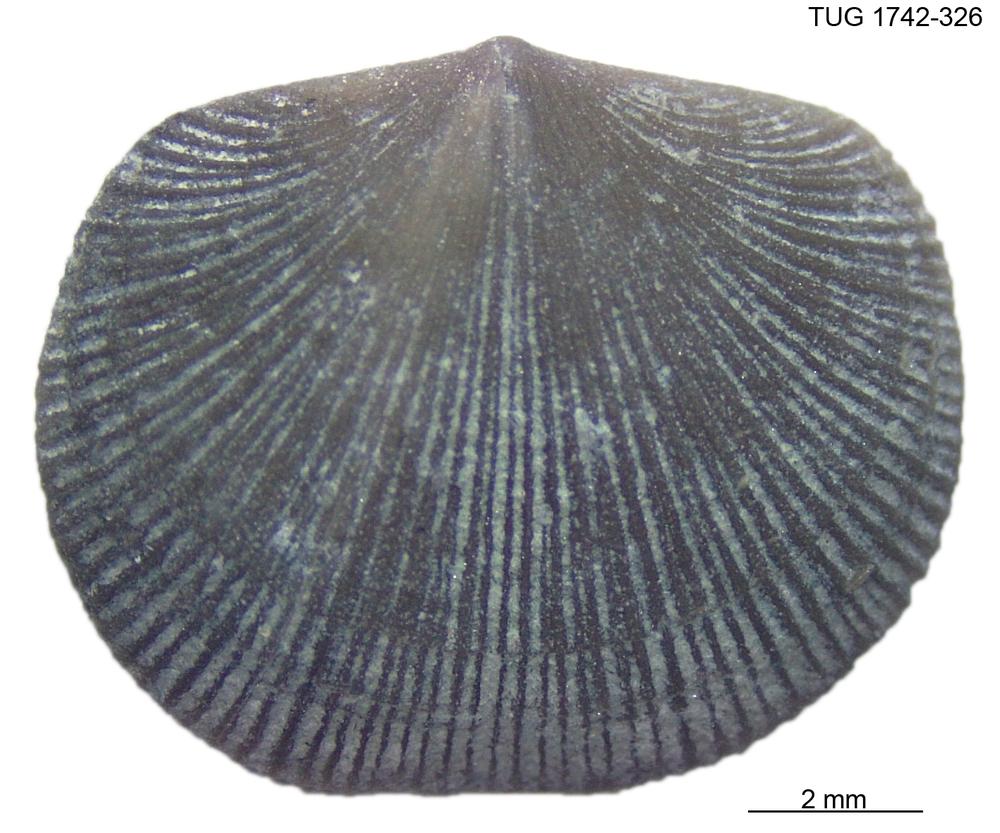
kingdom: Animalia
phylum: Brachiopoda
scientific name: Brachiopoda
